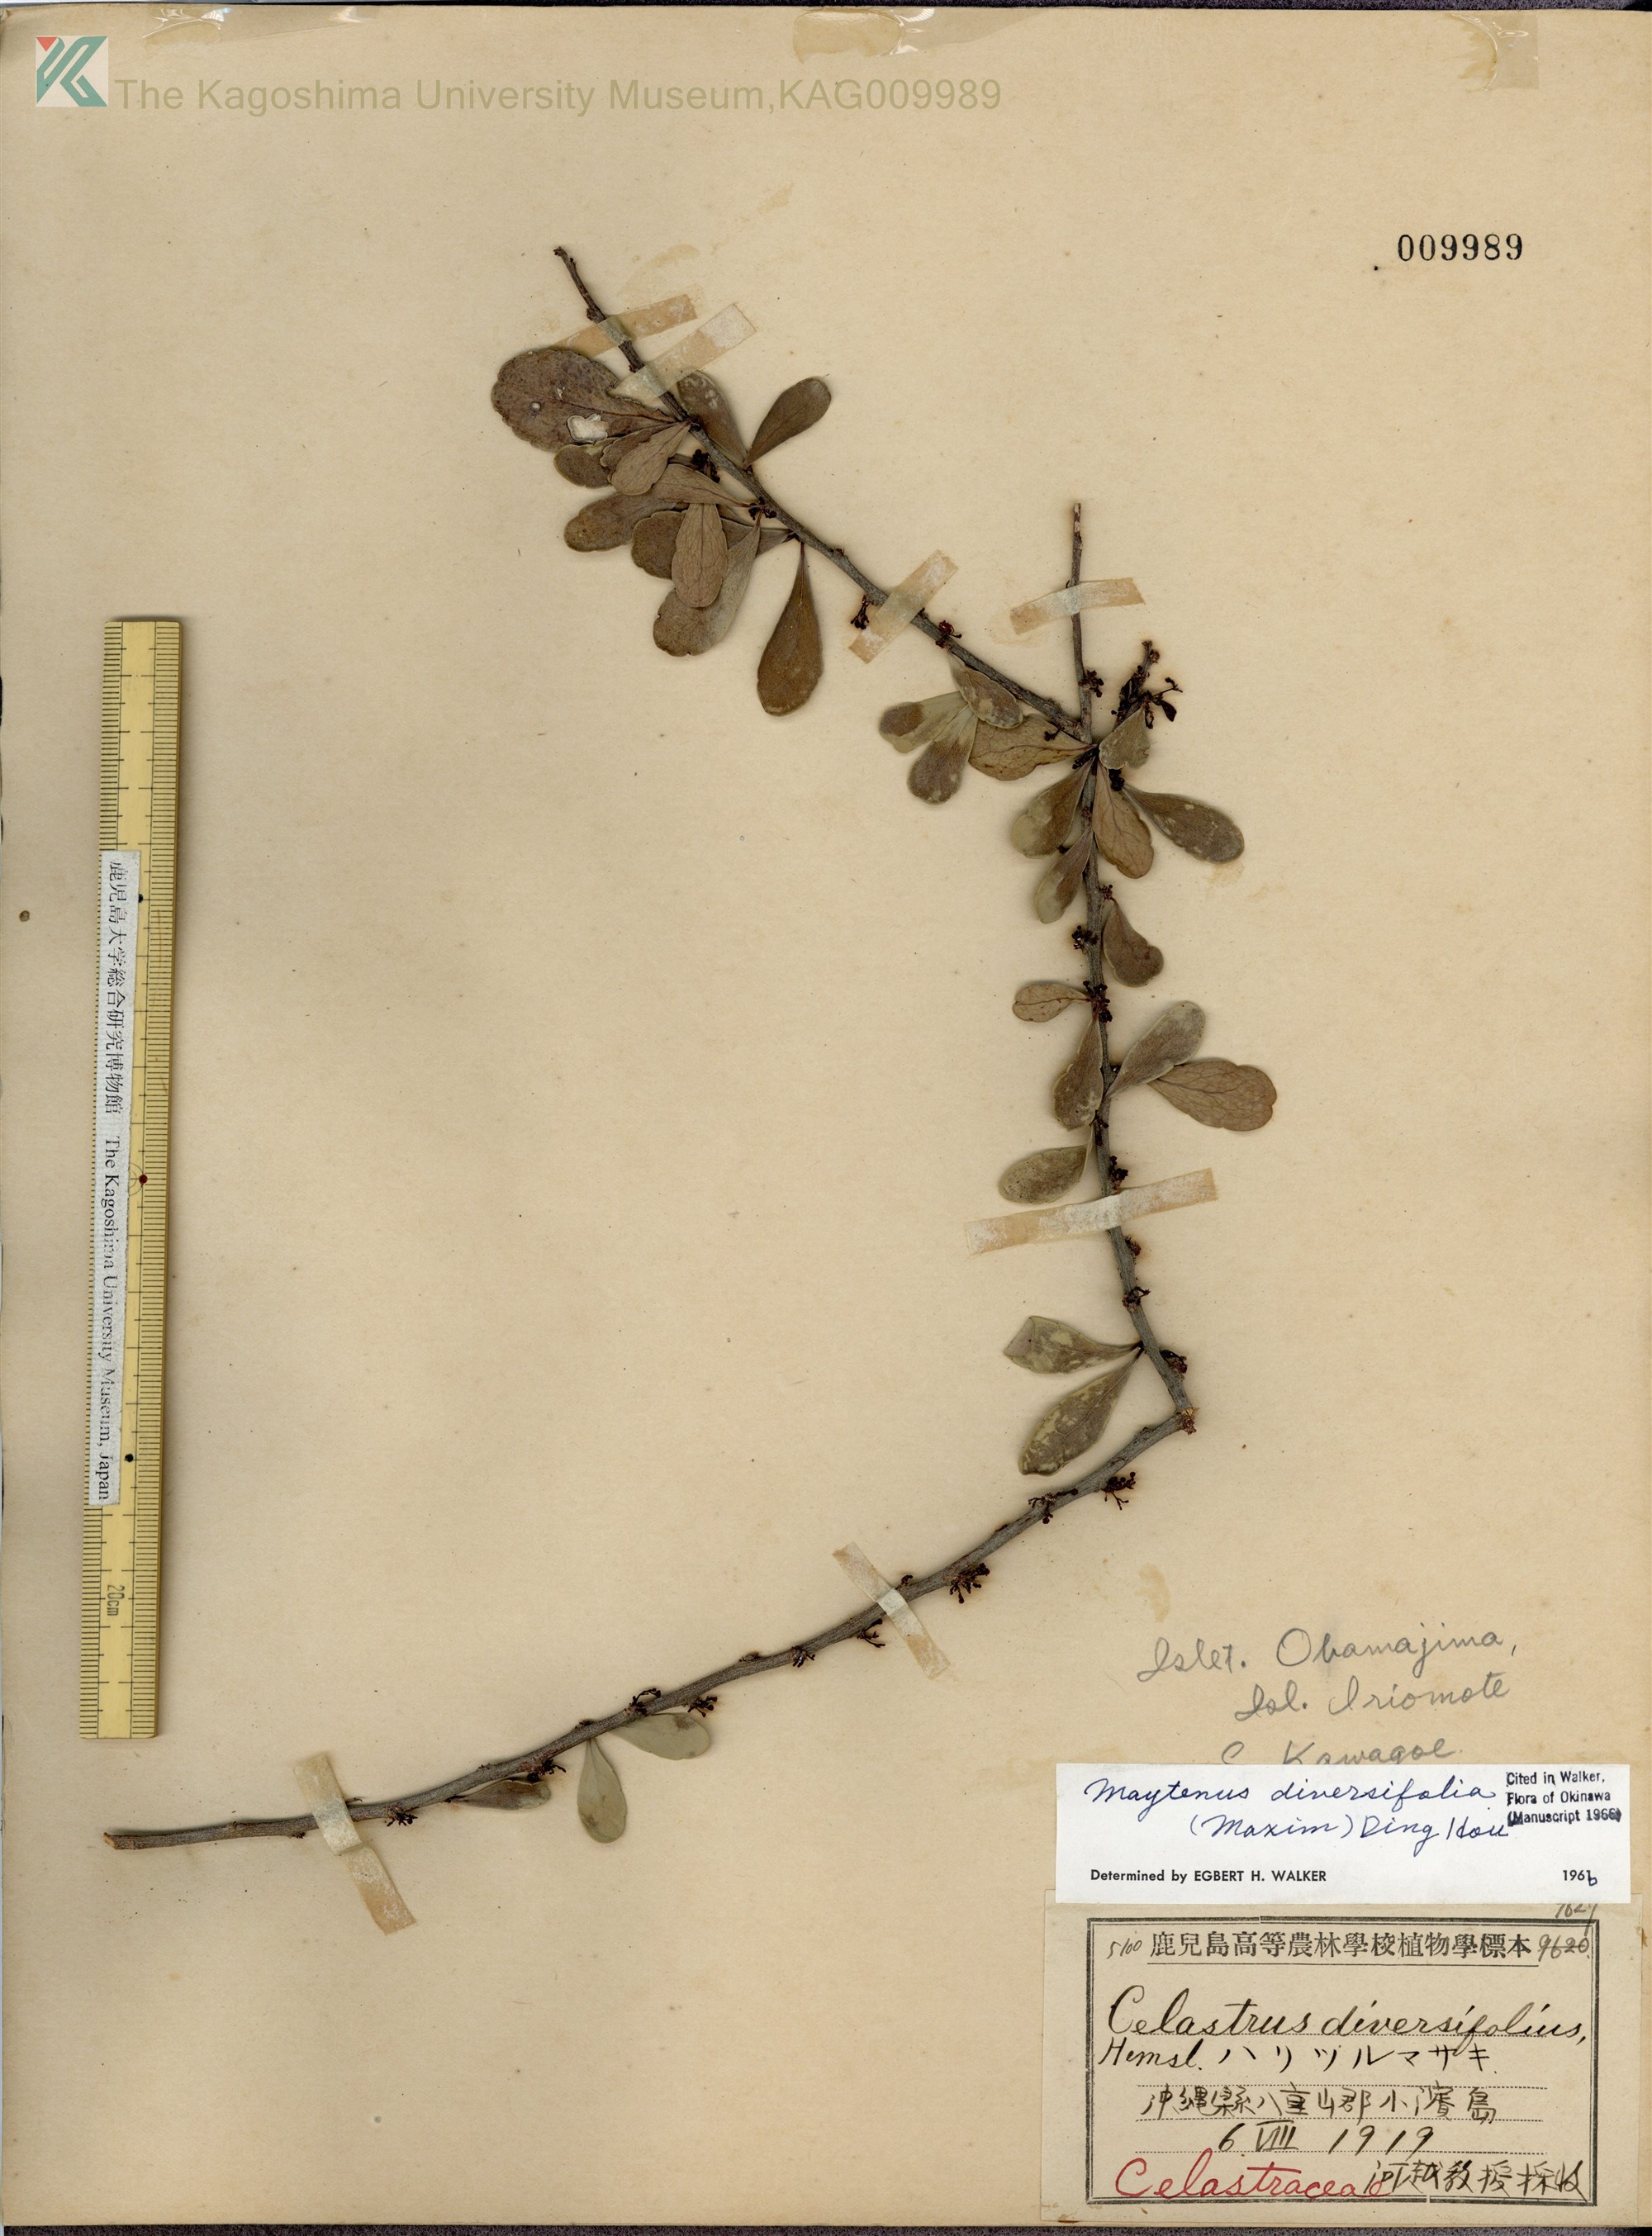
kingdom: Plantae
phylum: Tracheophyta
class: Magnoliopsida
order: Celastrales
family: Celastraceae
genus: Gymnosporia
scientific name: Gymnosporia diversifolia
